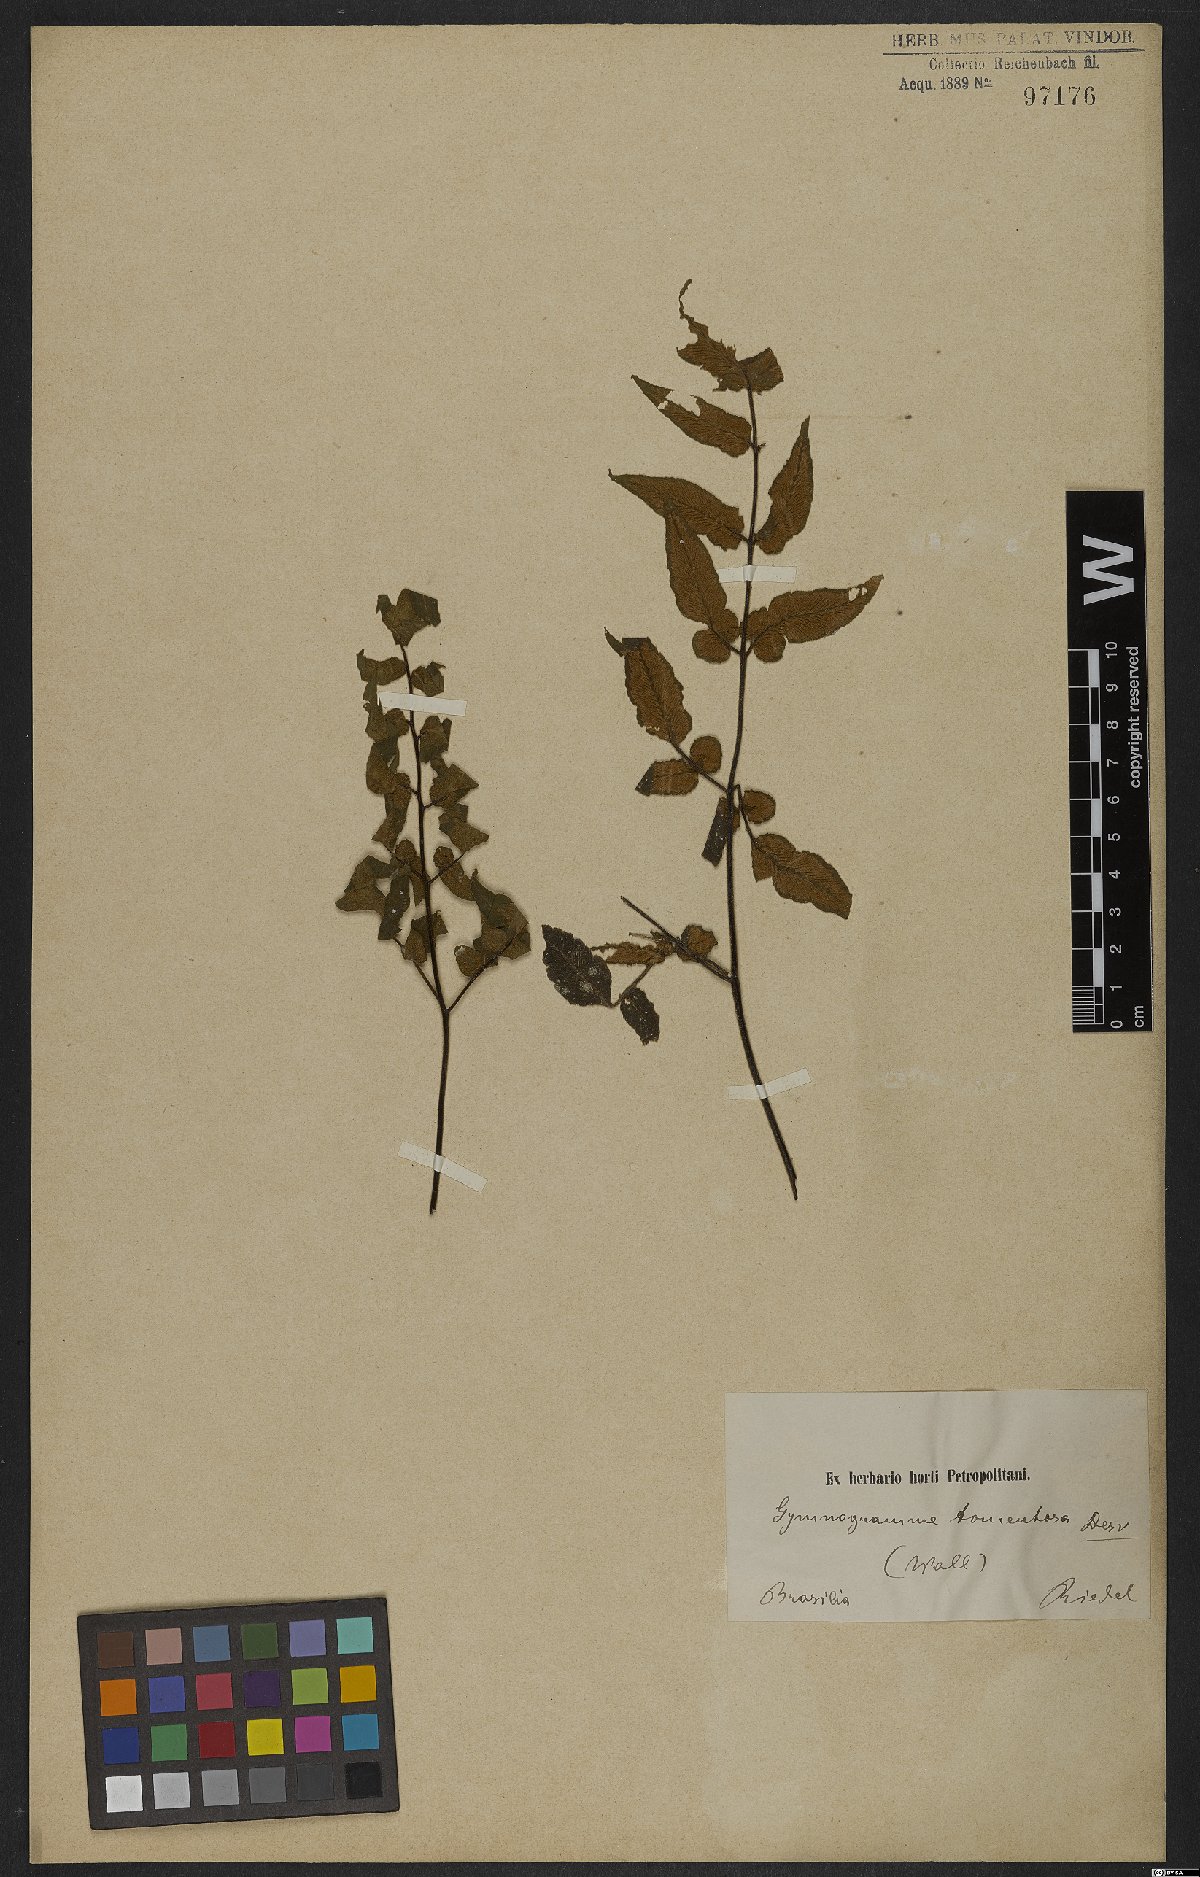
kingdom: Plantae
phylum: Tracheophyta
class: Polypodiopsida
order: Polypodiales
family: Pteridaceae
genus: Hemionitis
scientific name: Hemionitis tomentosa
